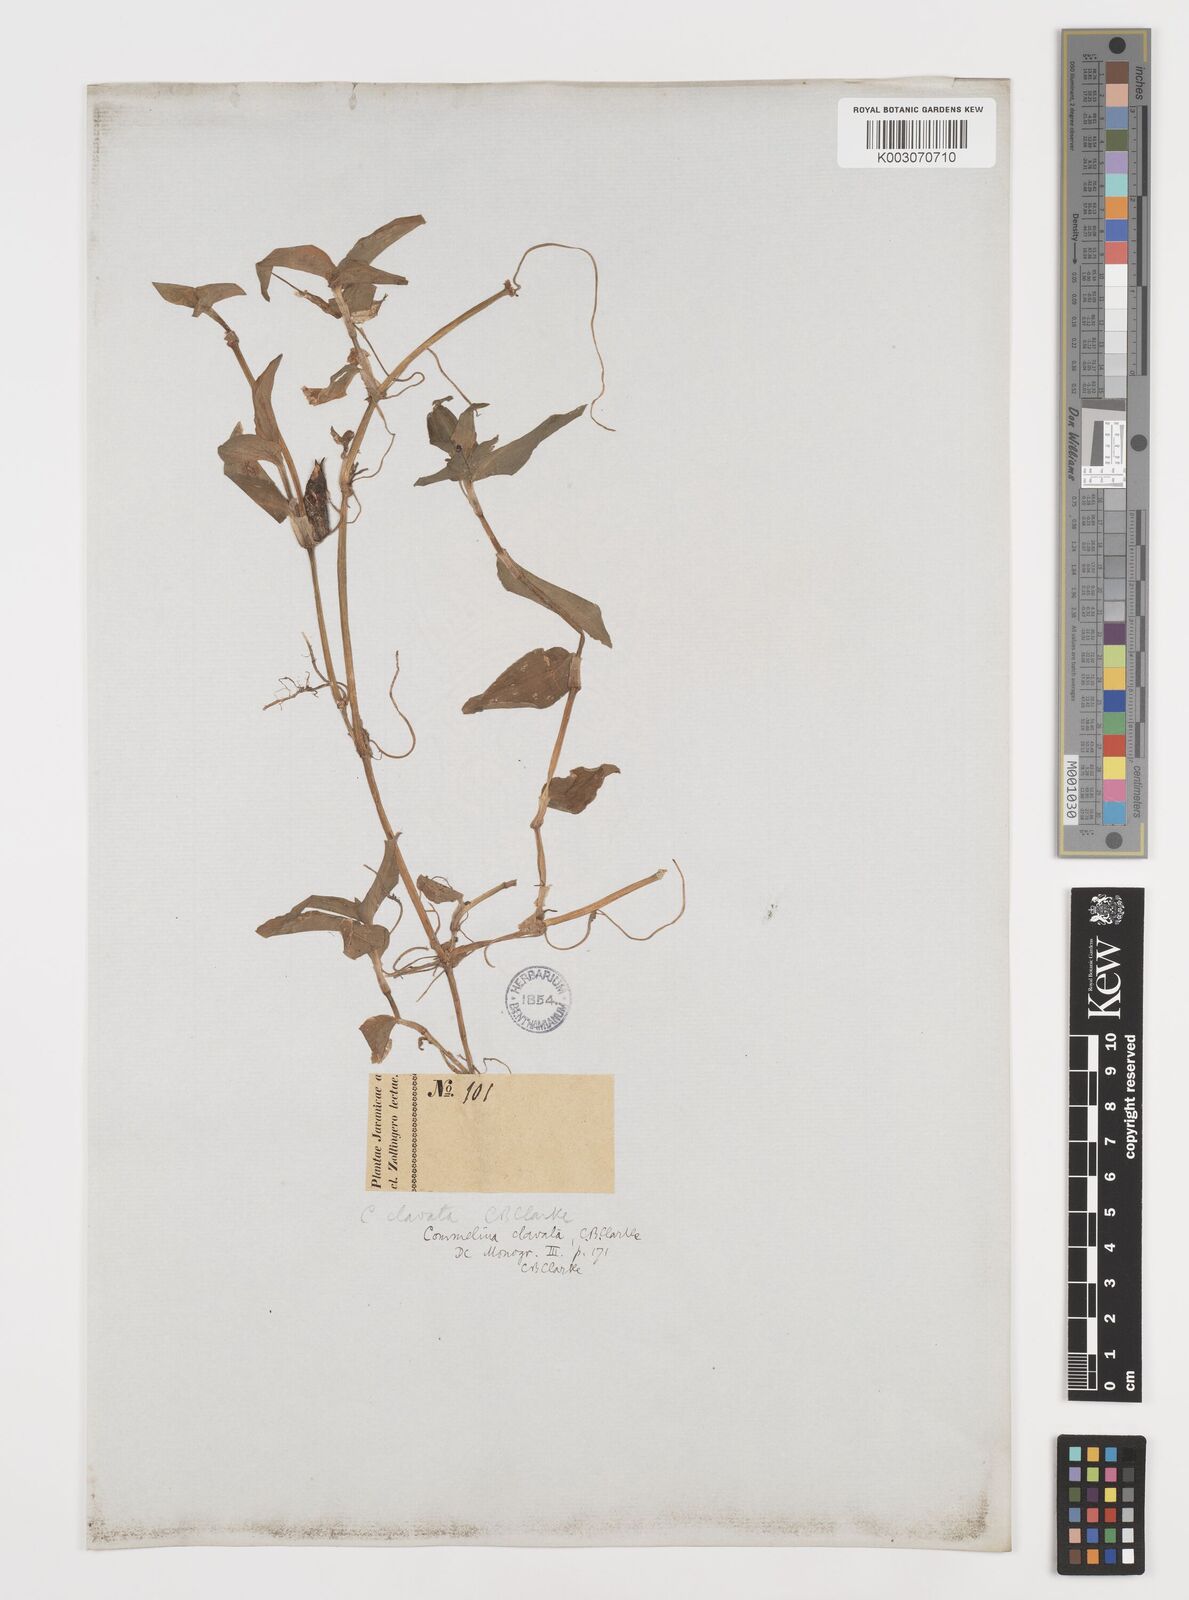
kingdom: Plantae
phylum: Tracheophyta
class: Liliopsida
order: Commelinales
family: Commelinaceae
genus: Commelina
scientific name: Commelina clavata
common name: Willow leaved dayflower
